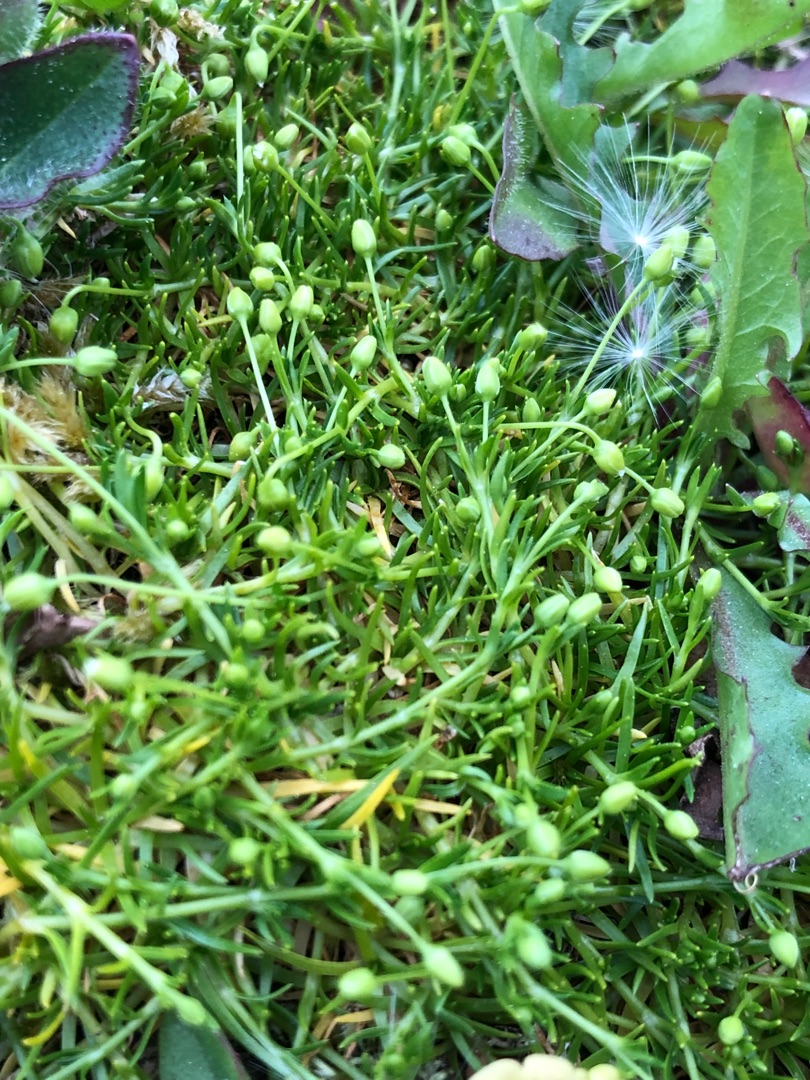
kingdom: Plantae
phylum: Tracheophyta
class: Magnoliopsida
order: Caryophyllales
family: Caryophyllaceae
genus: Sagina
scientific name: Sagina procumbens
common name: Almindelig firling
